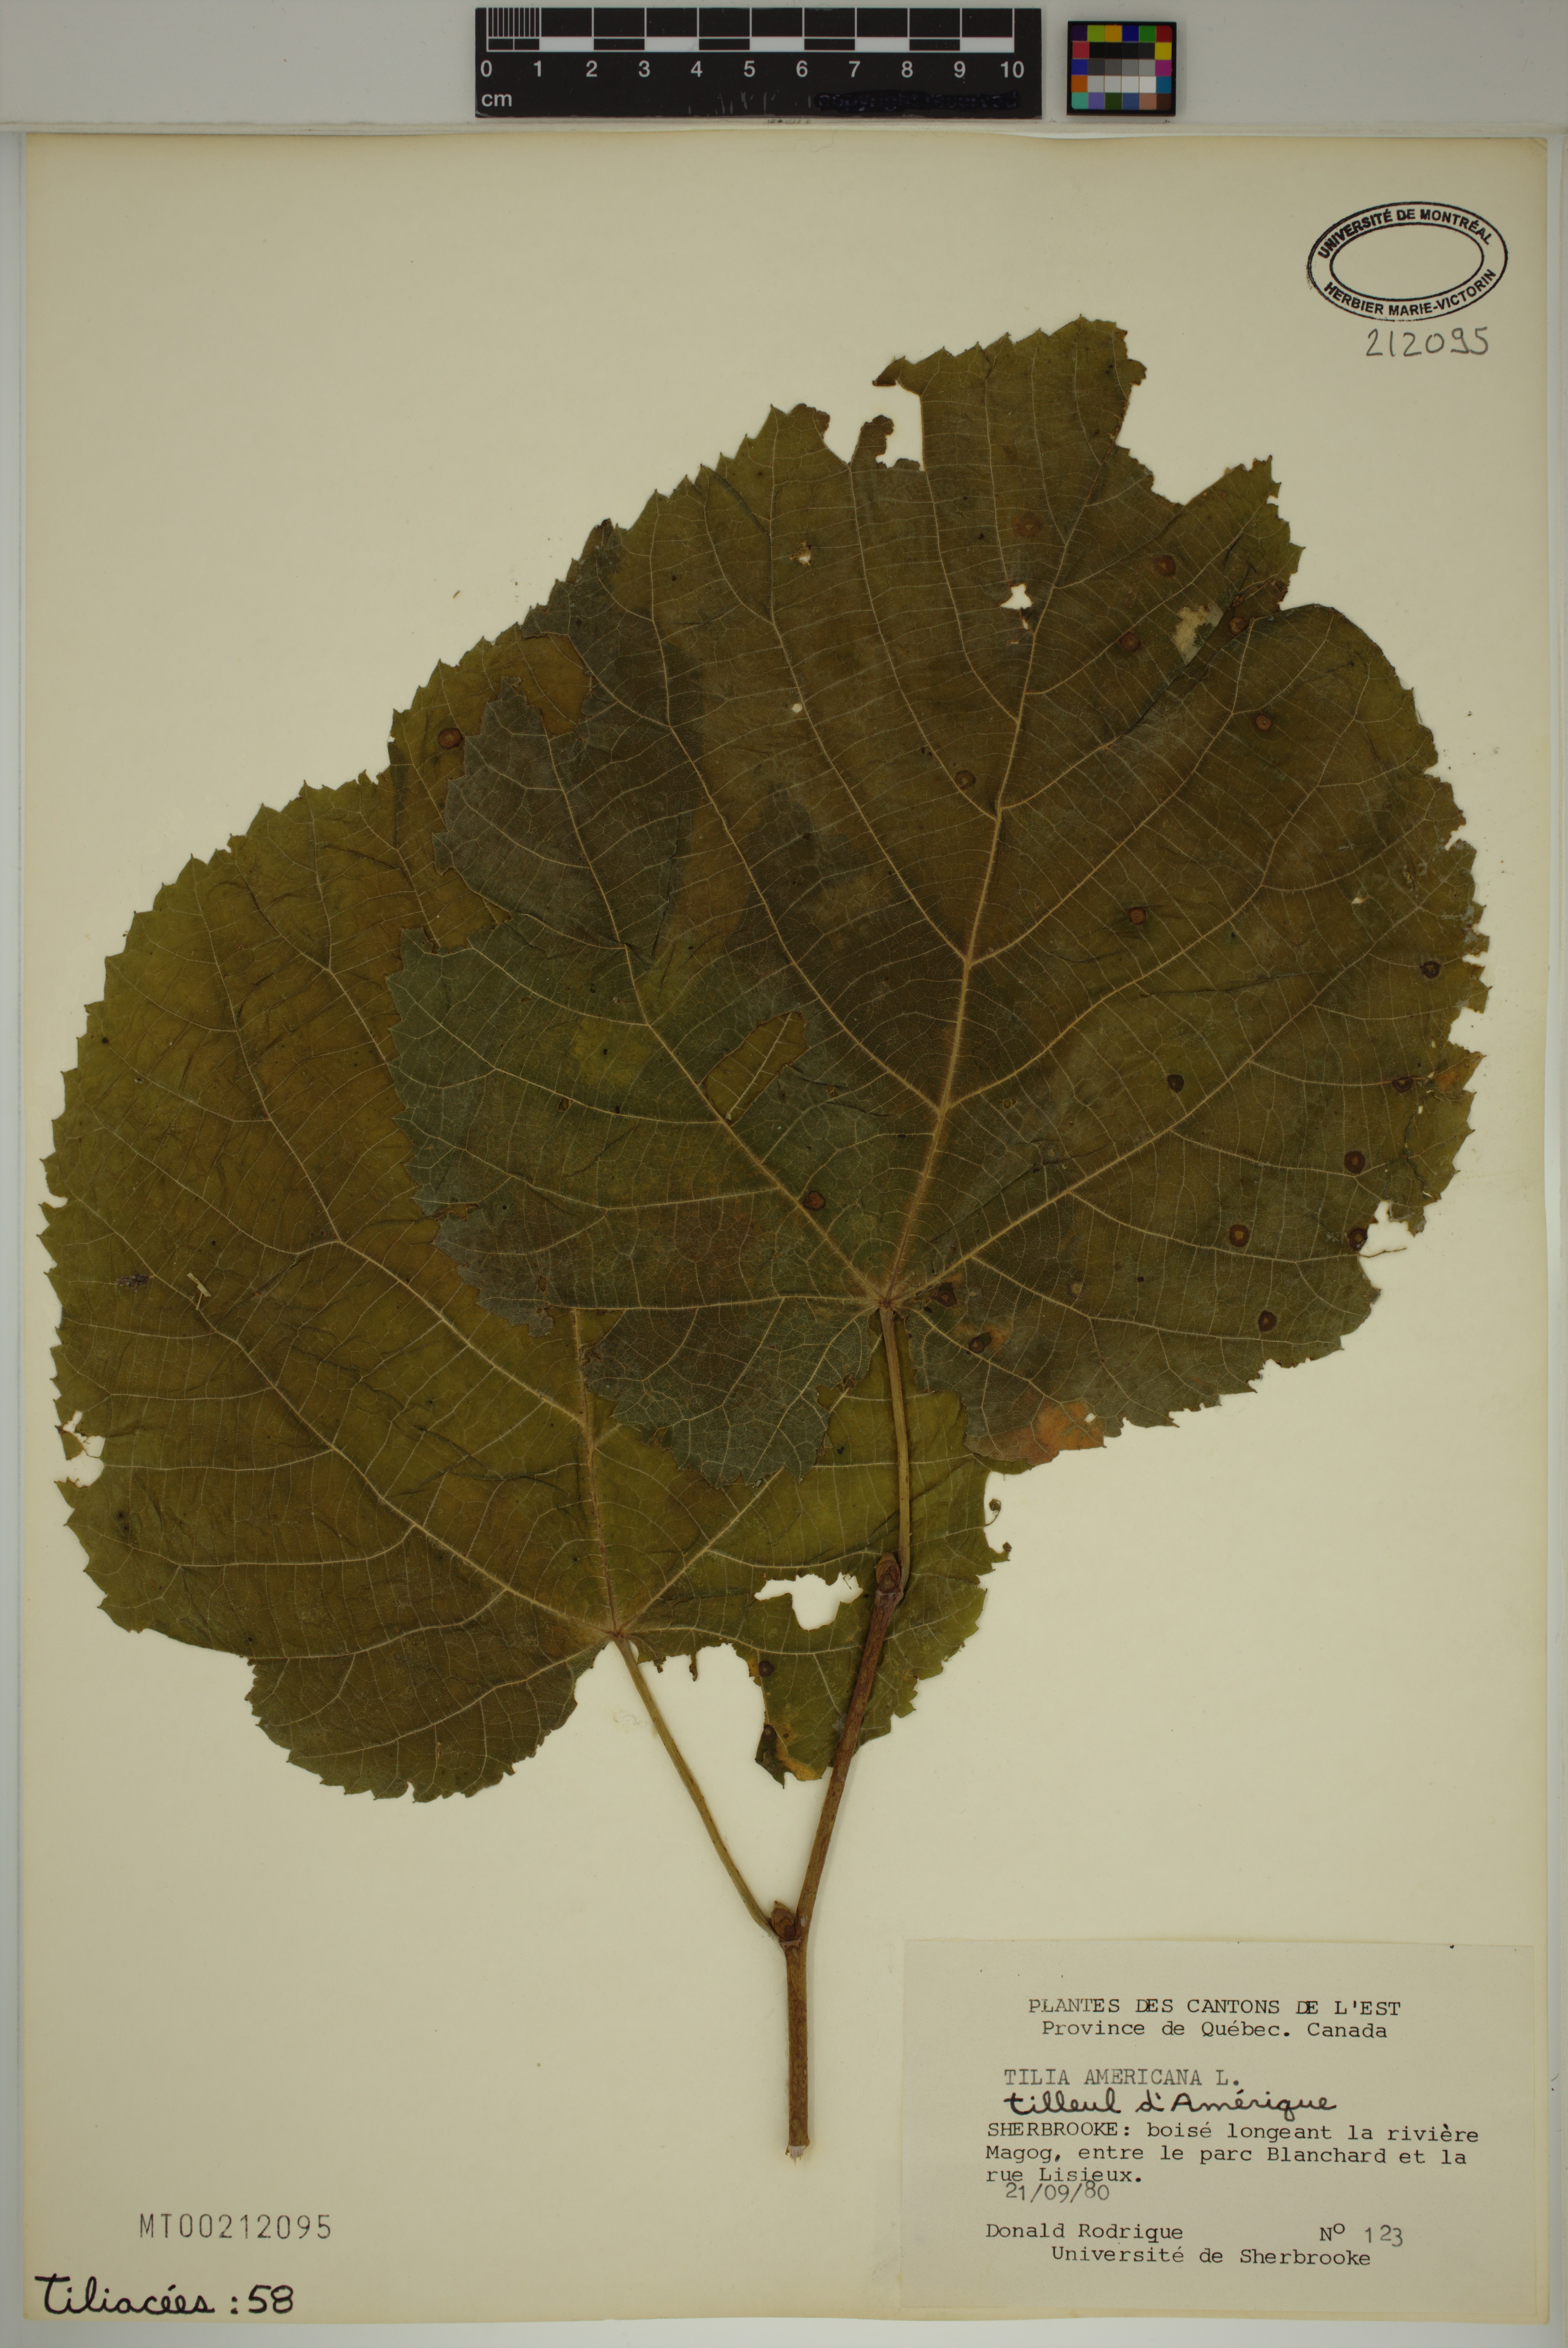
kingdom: Plantae
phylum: Tracheophyta
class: Magnoliopsida
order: Malvales
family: Malvaceae
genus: Tilia
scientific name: Tilia americana
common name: Basswood
